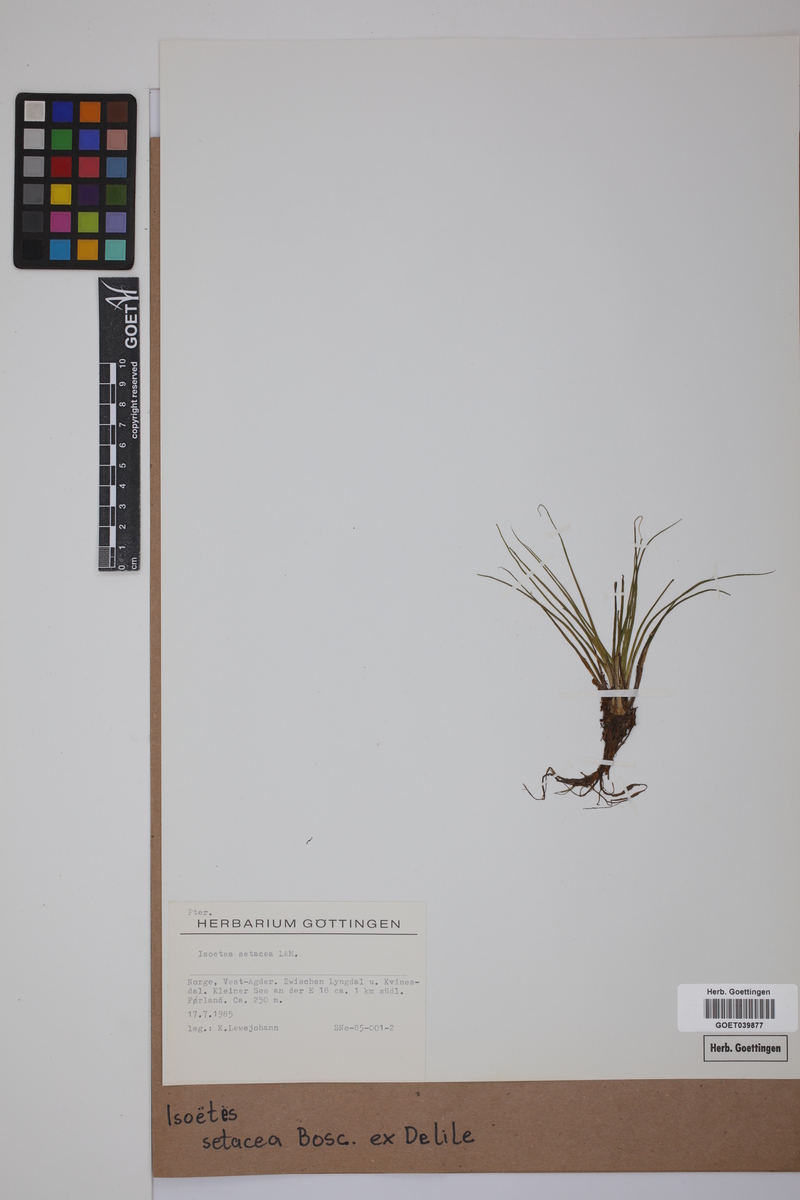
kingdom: Plantae
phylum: Tracheophyta
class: Lycopodiopsida
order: Isoetales
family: Isoetaceae
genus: Isoetes
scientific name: Isoetes longissima
